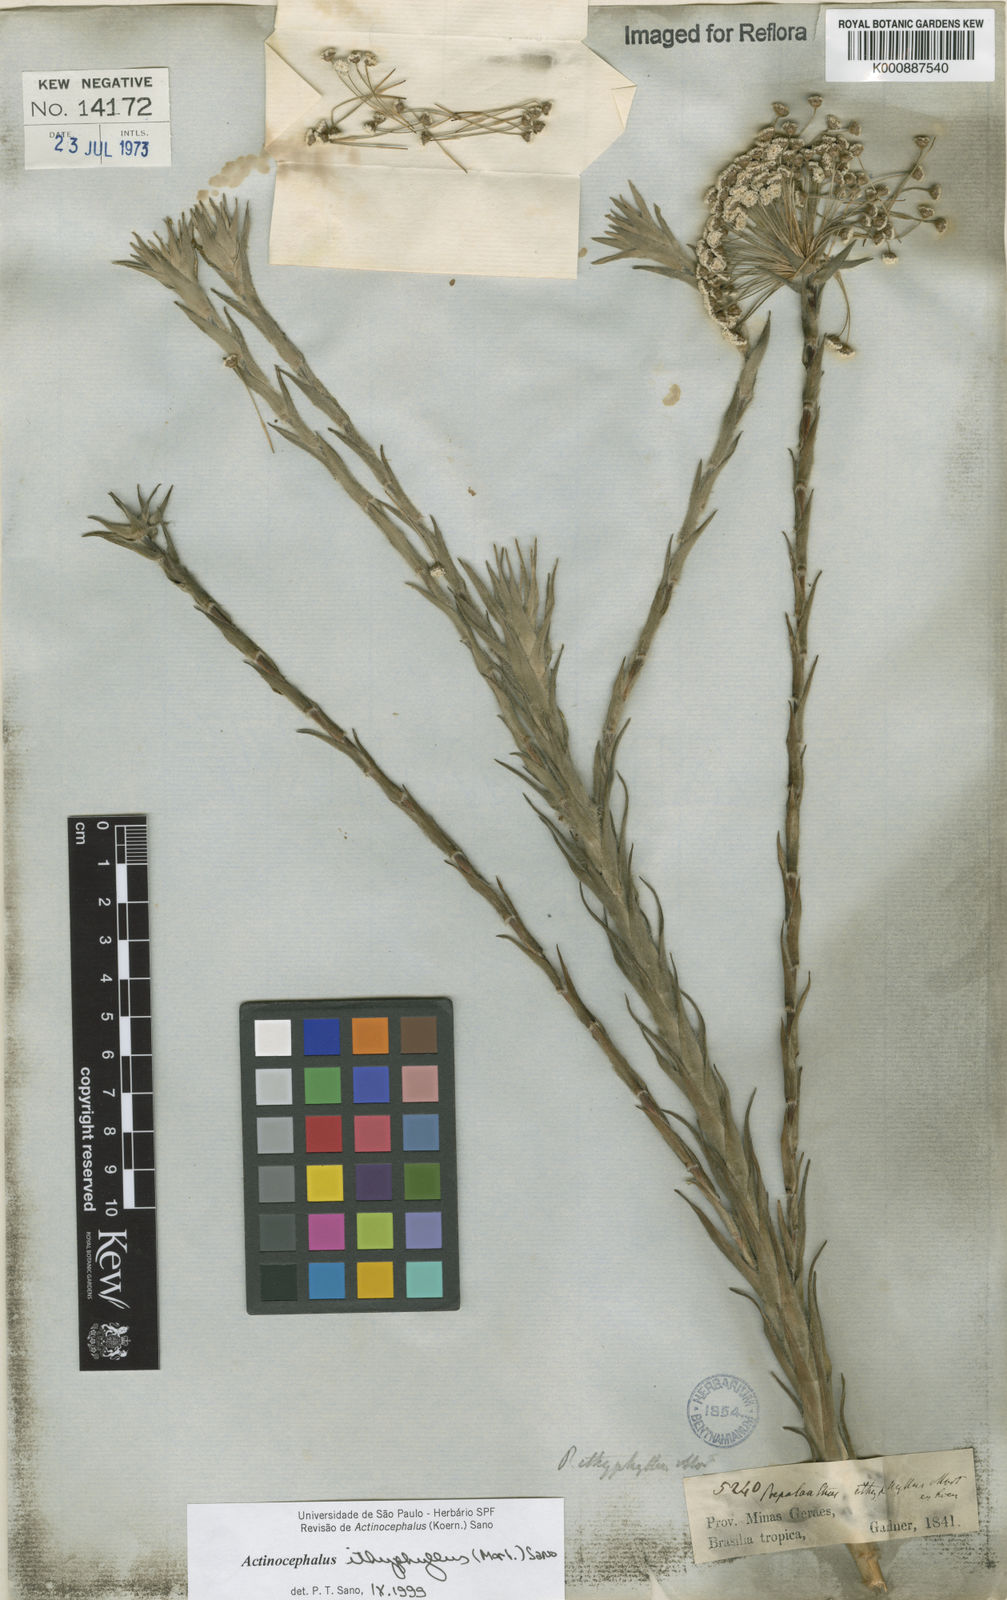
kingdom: Plantae
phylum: Tracheophyta
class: Liliopsida
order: Poales
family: Eriocaulaceae
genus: Paepalanthus
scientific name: Paepalanthus ithyphyllus
